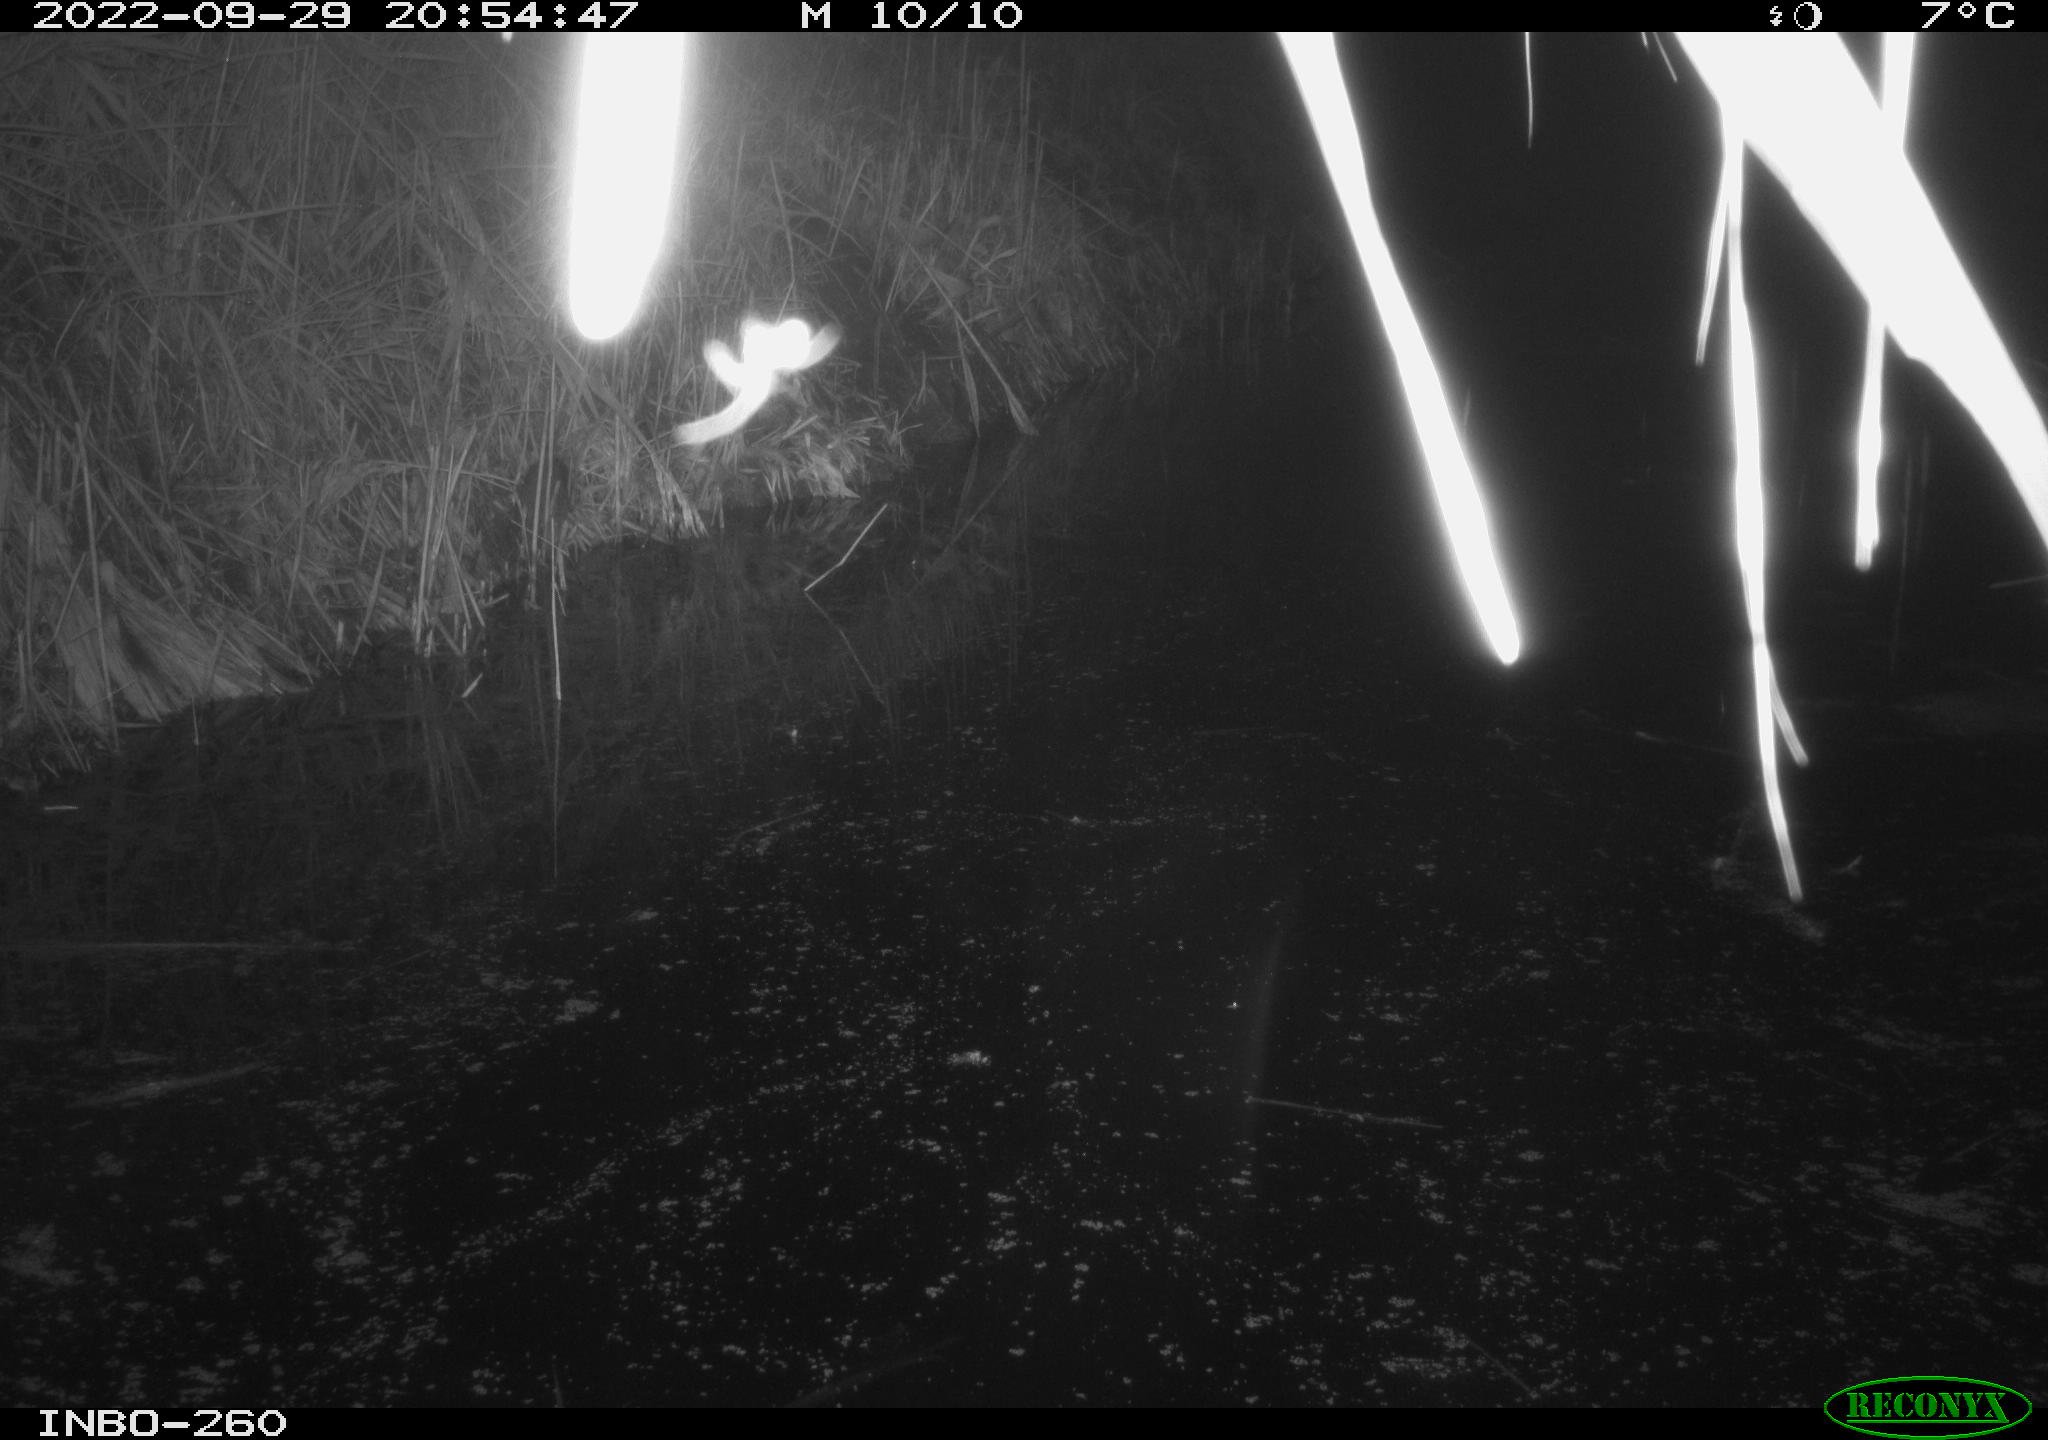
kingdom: Animalia
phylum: Chordata
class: Mammalia
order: Rodentia
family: Muridae
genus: Rattus
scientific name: Rattus norvegicus
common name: Brown rat
